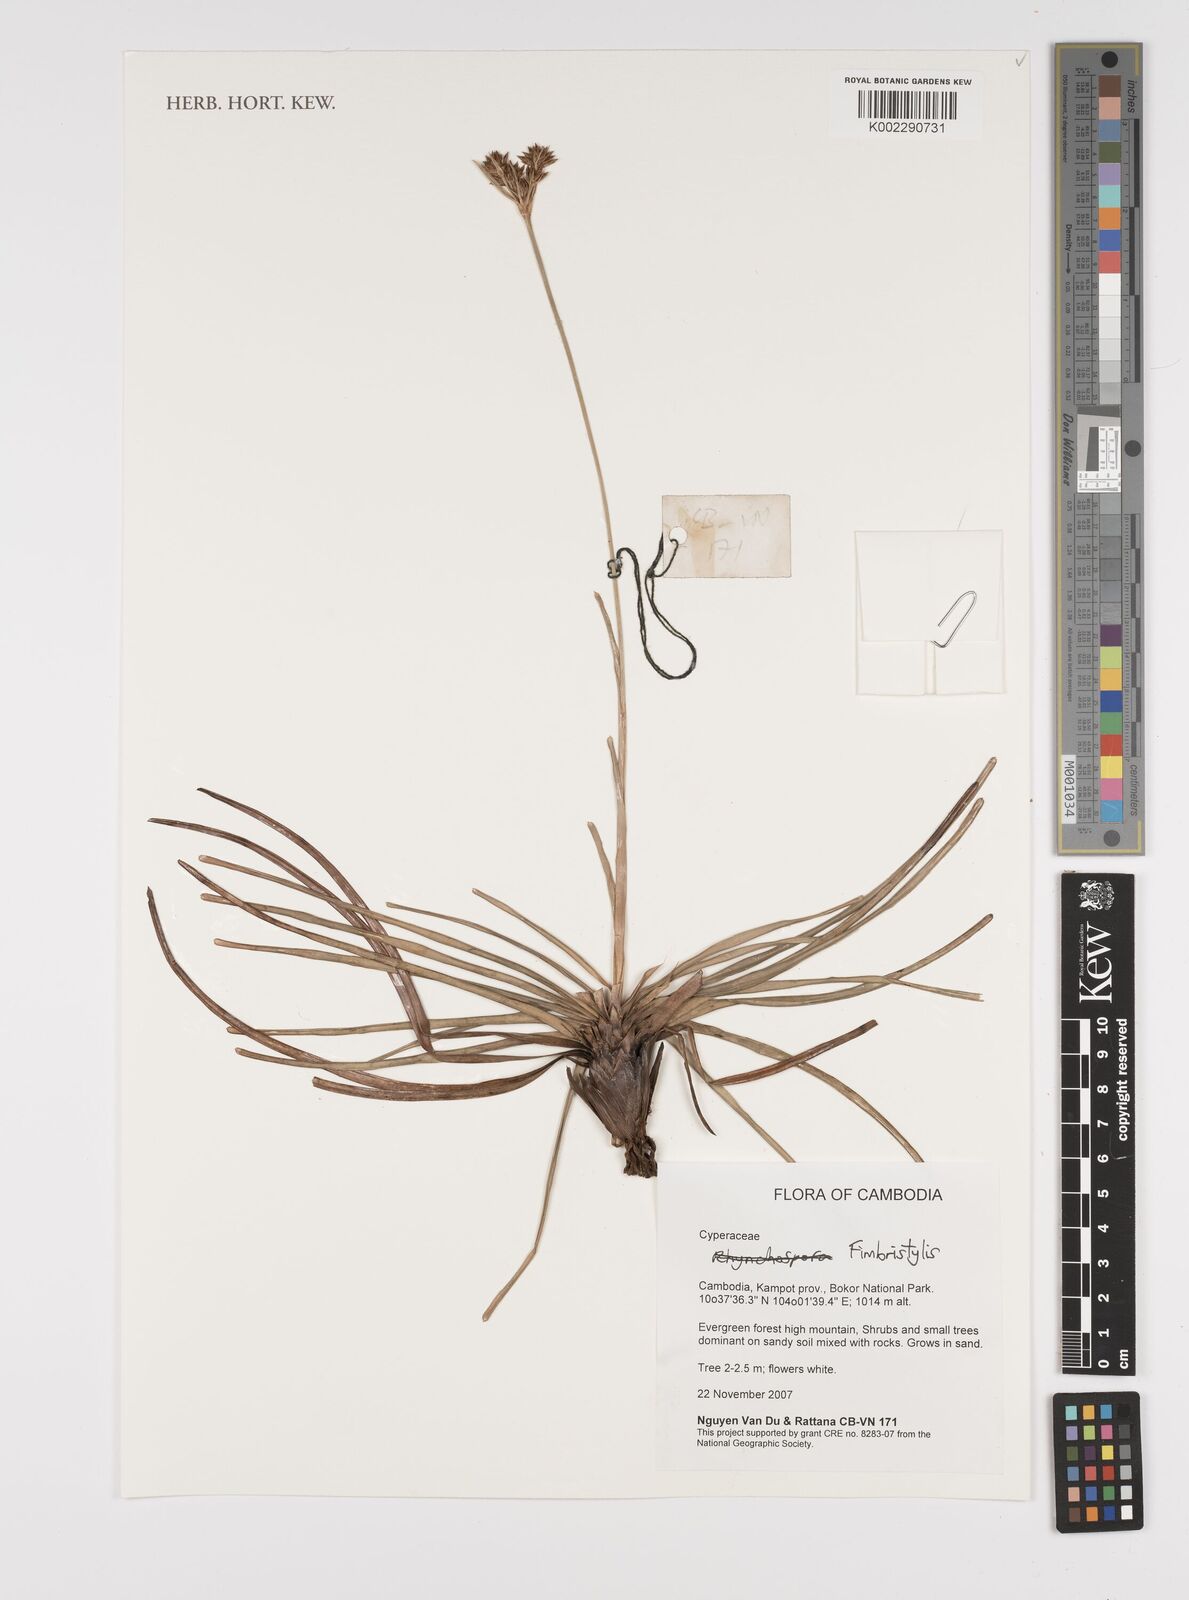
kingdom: Plantae
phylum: Tracheophyta
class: Liliopsida
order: Poales
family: Cyperaceae
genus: Fimbristylis
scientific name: Fimbristylis
